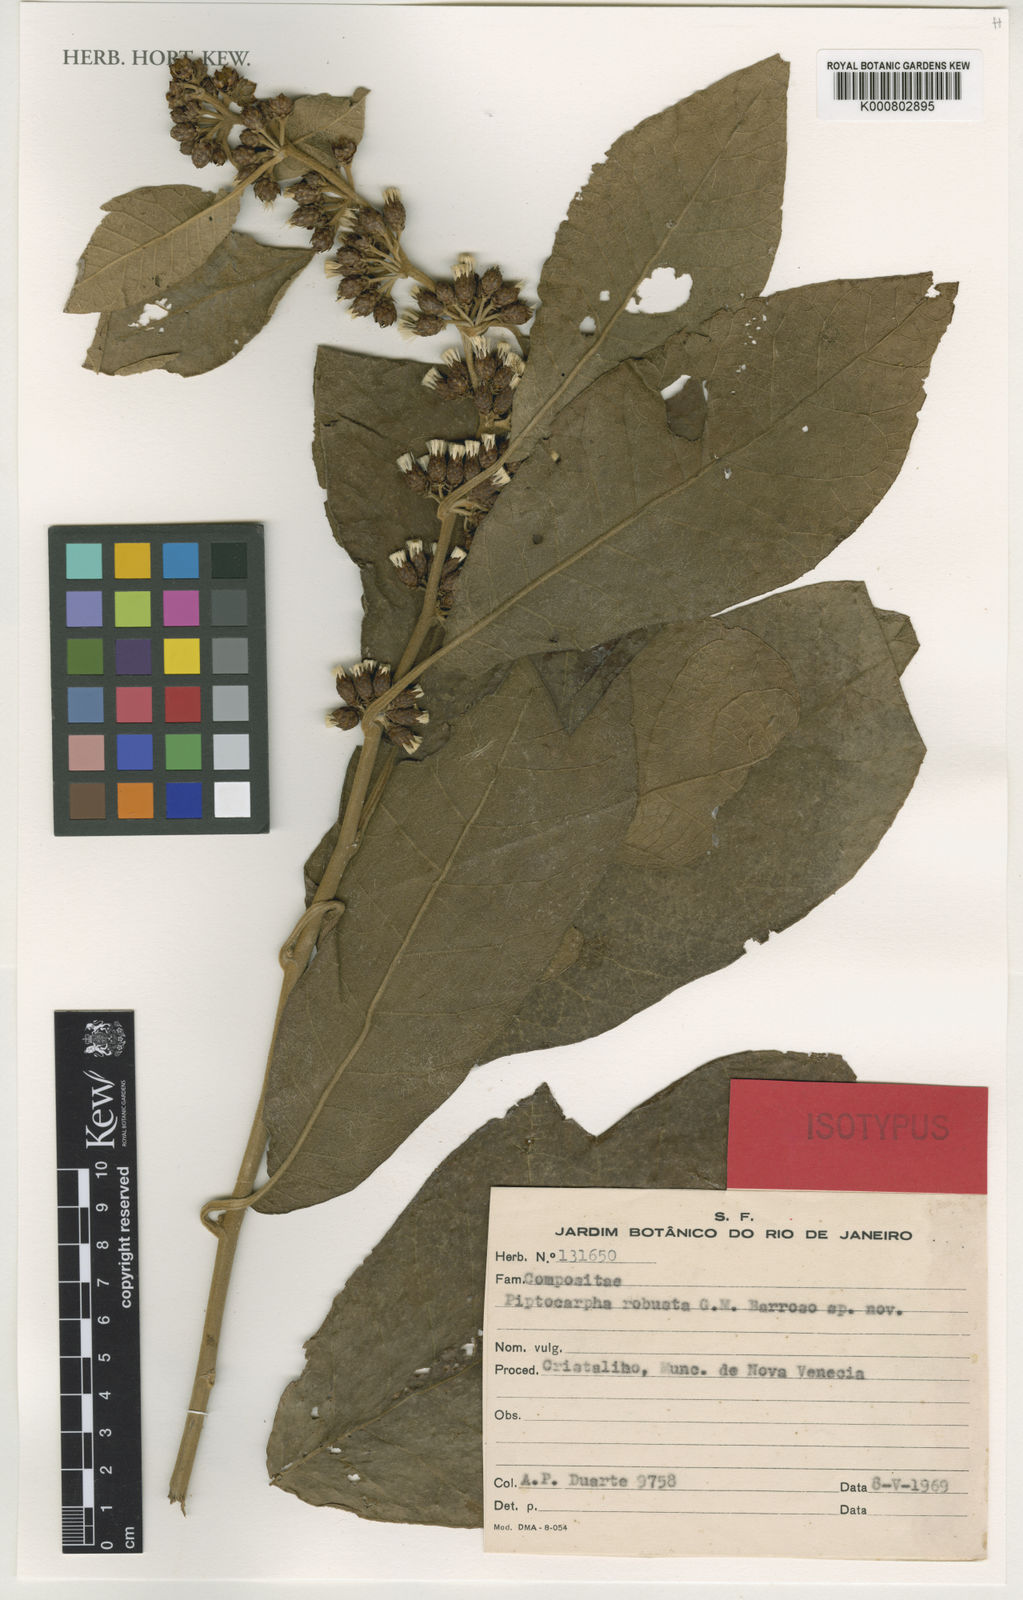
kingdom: Plantae
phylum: Tracheophyta
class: Magnoliopsida
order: Asterales
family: Asteraceae
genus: Piptocarpha
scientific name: Piptocarpha robusta
